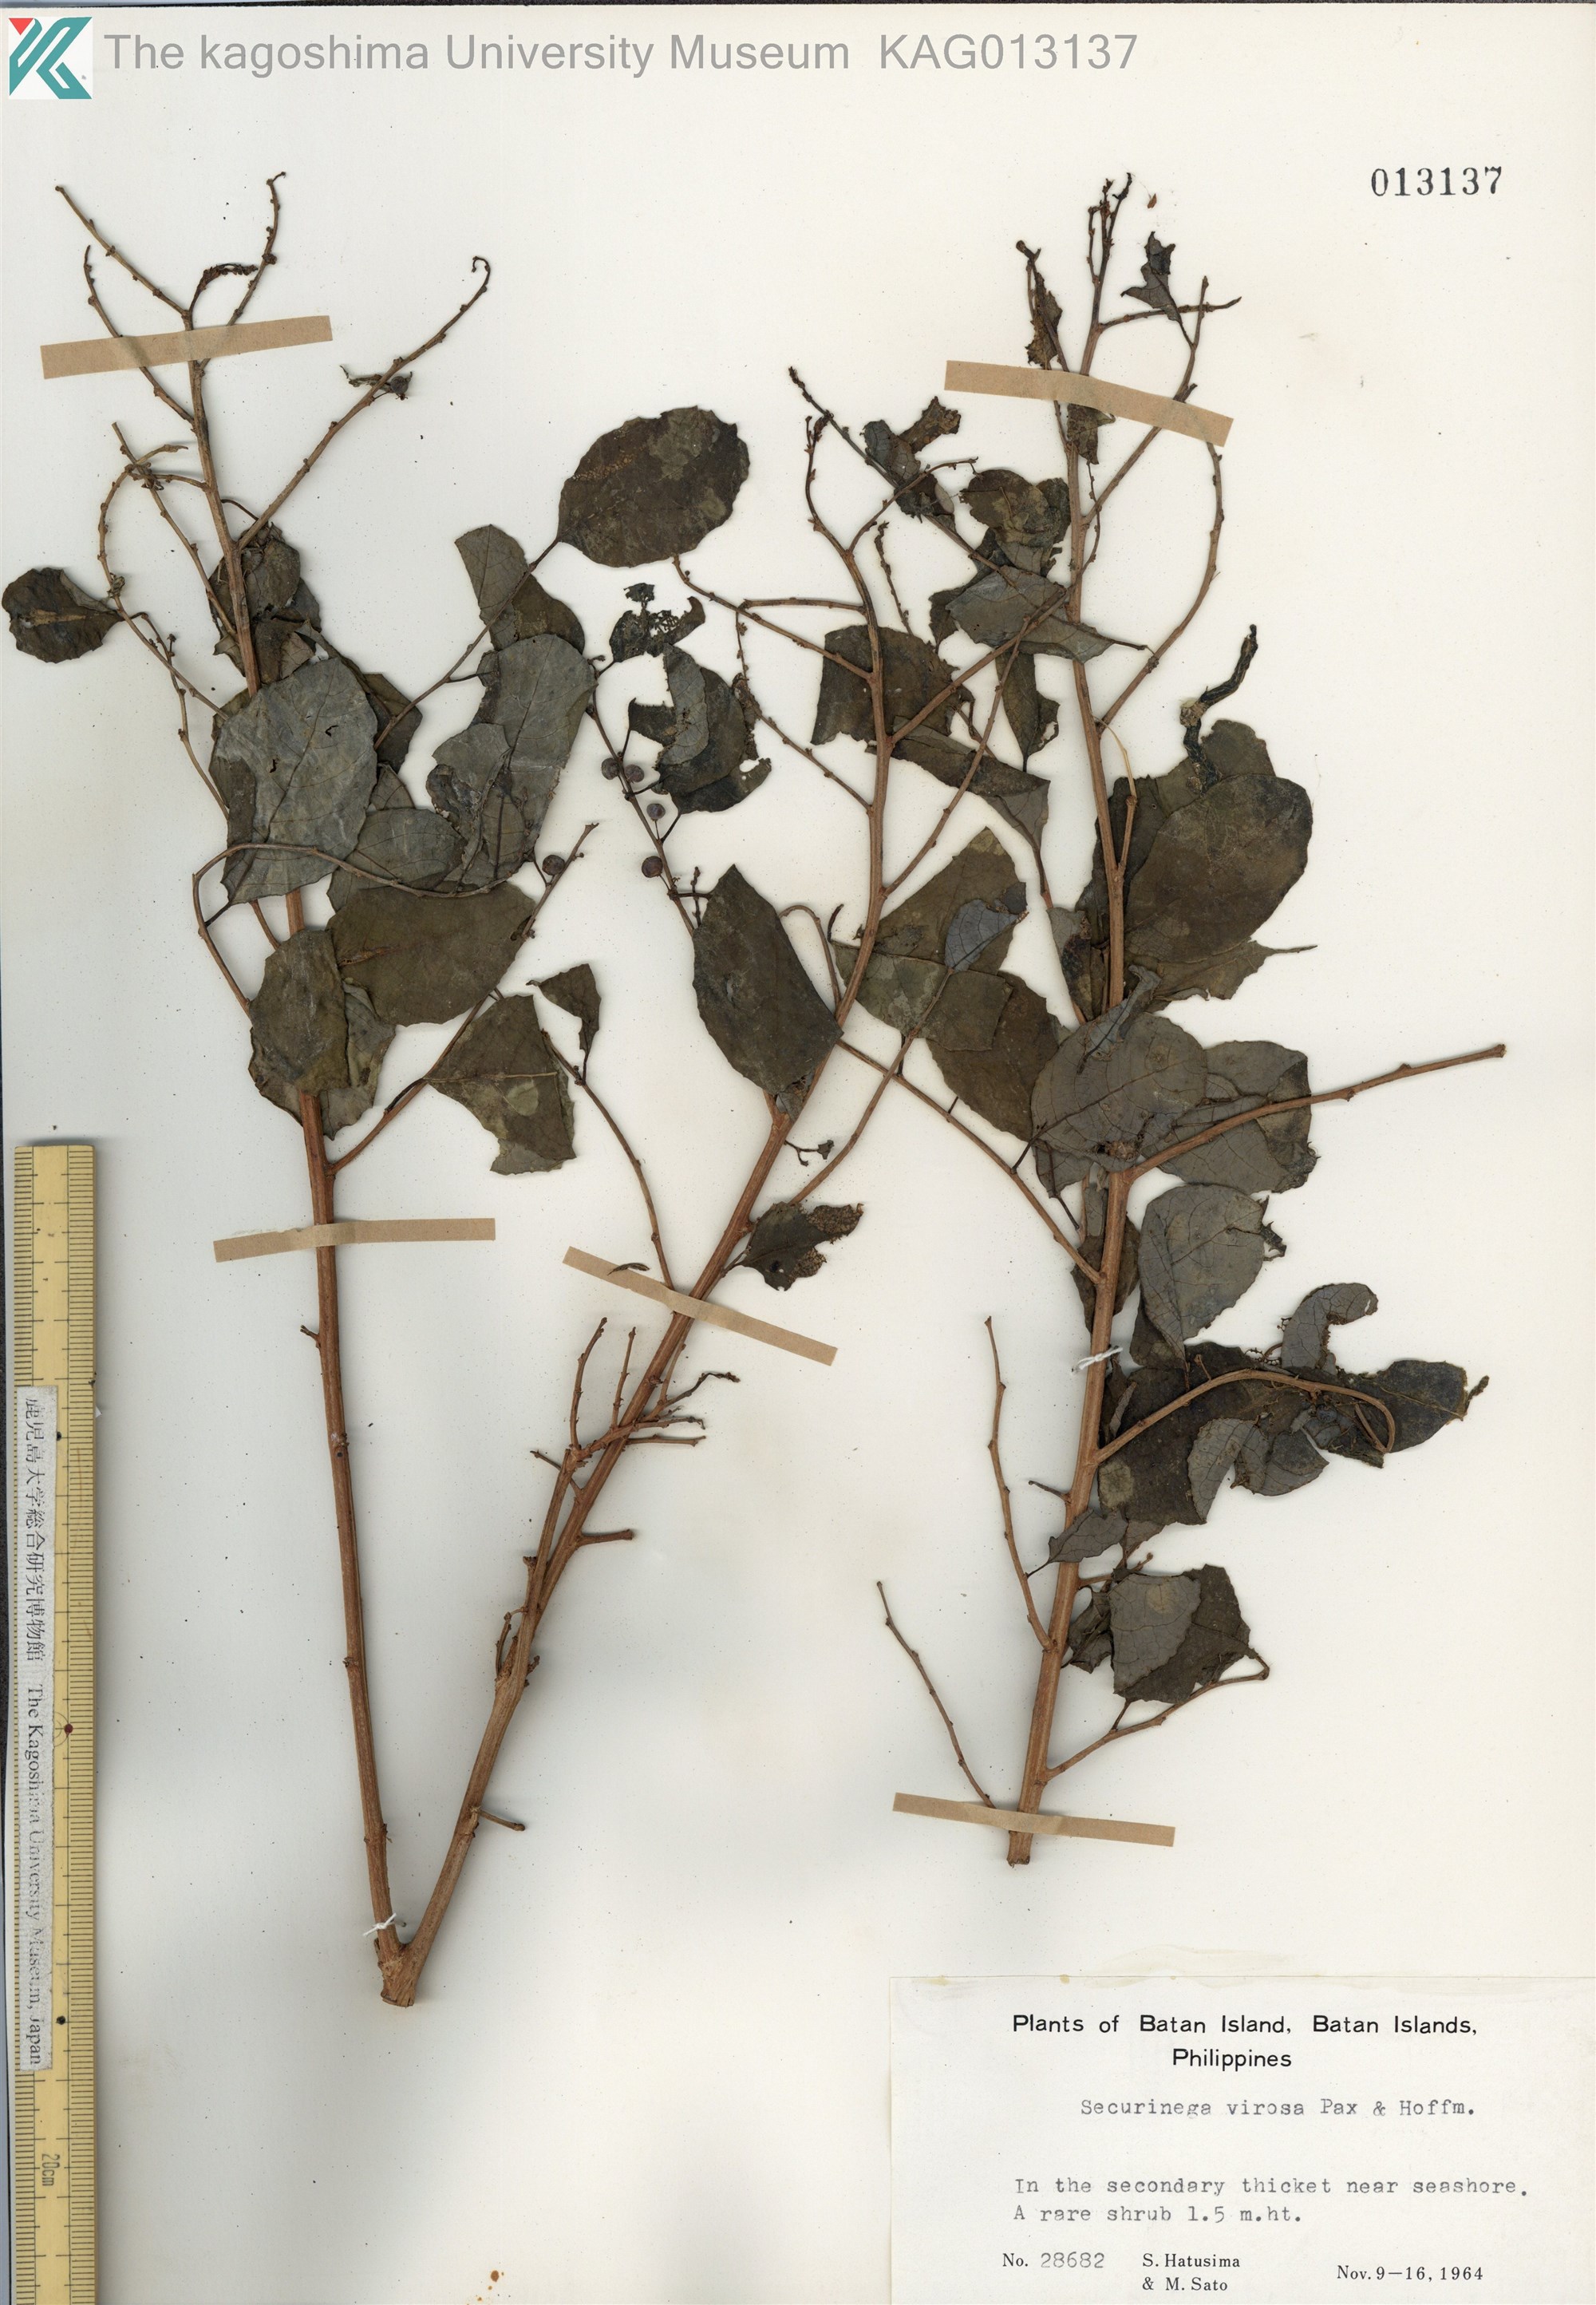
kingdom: Plantae
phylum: Tracheophyta
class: Magnoliopsida
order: Malpighiales
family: Phyllanthaceae
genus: Flueggea
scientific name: Flueggea virosa
